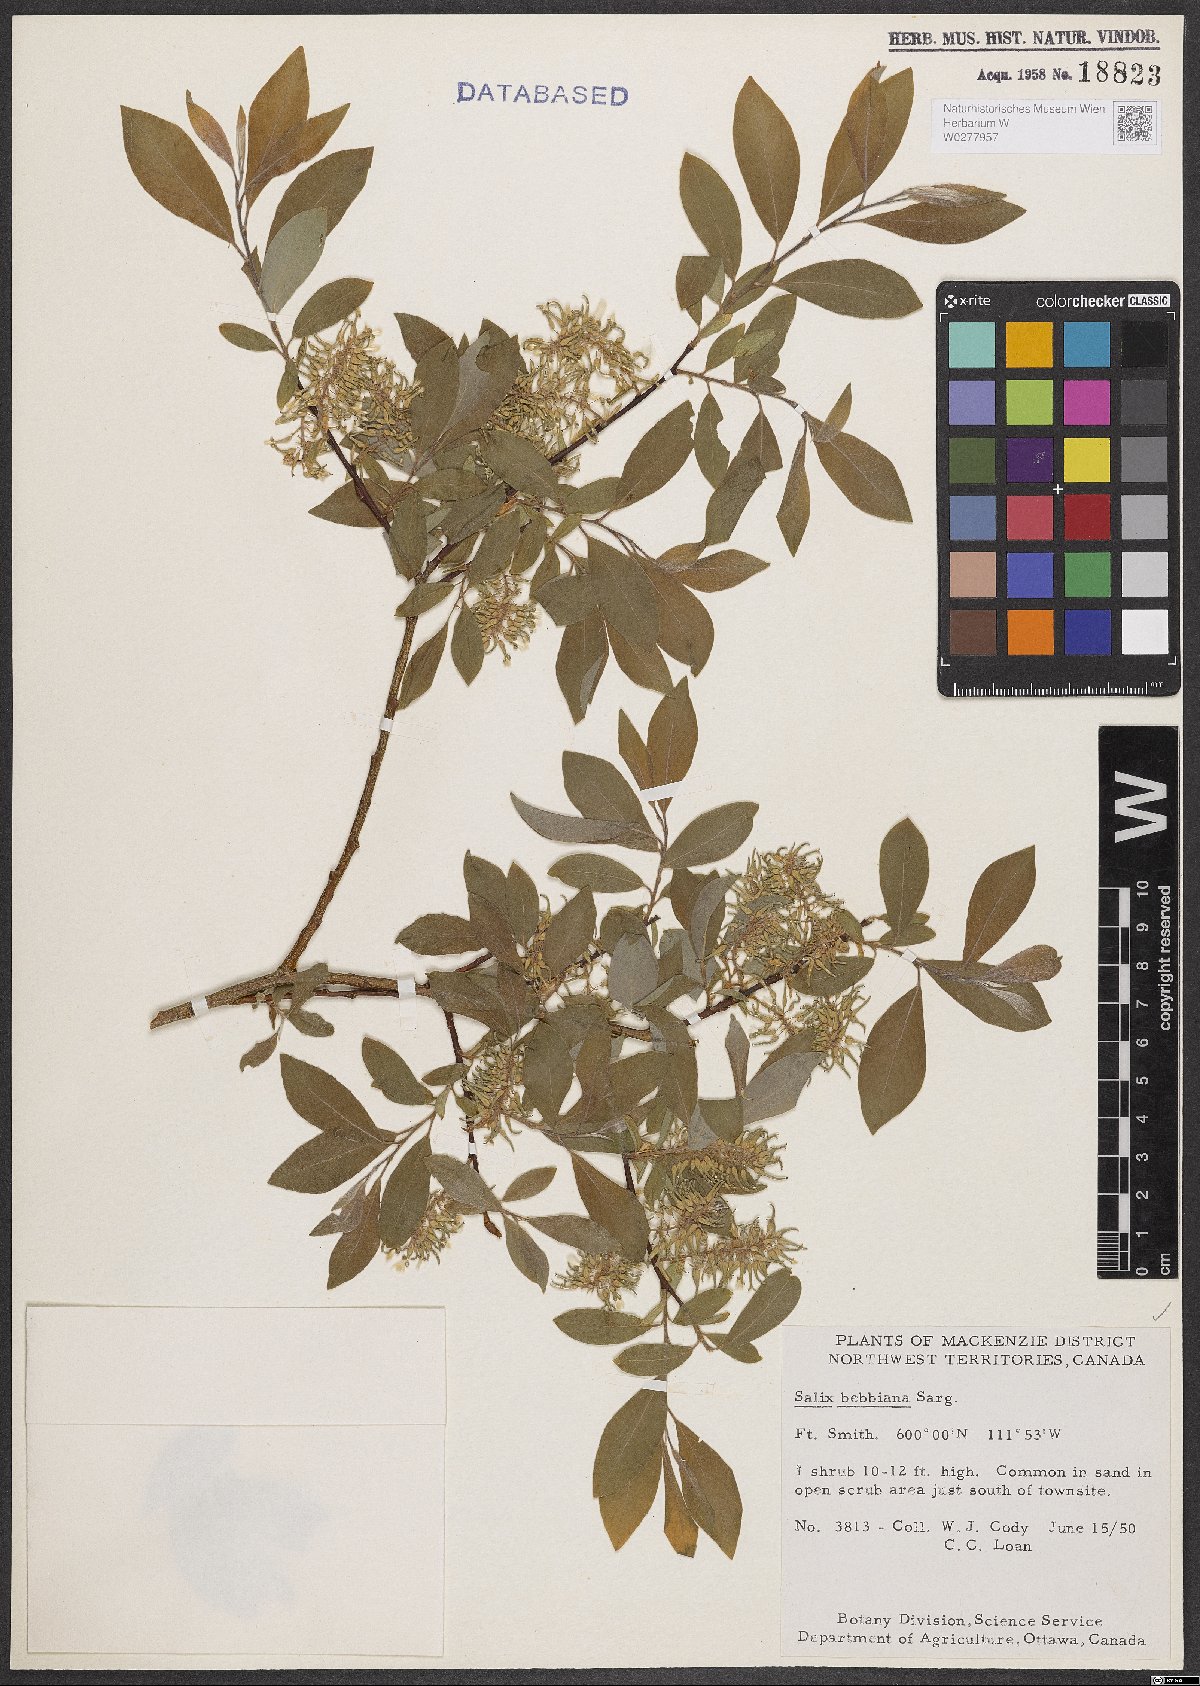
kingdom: Plantae
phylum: Tracheophyta
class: Magnoliopsida
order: Malpighiales
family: Salicaceae
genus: Salix
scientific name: Salix bebbiana
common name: Bebb's willow
